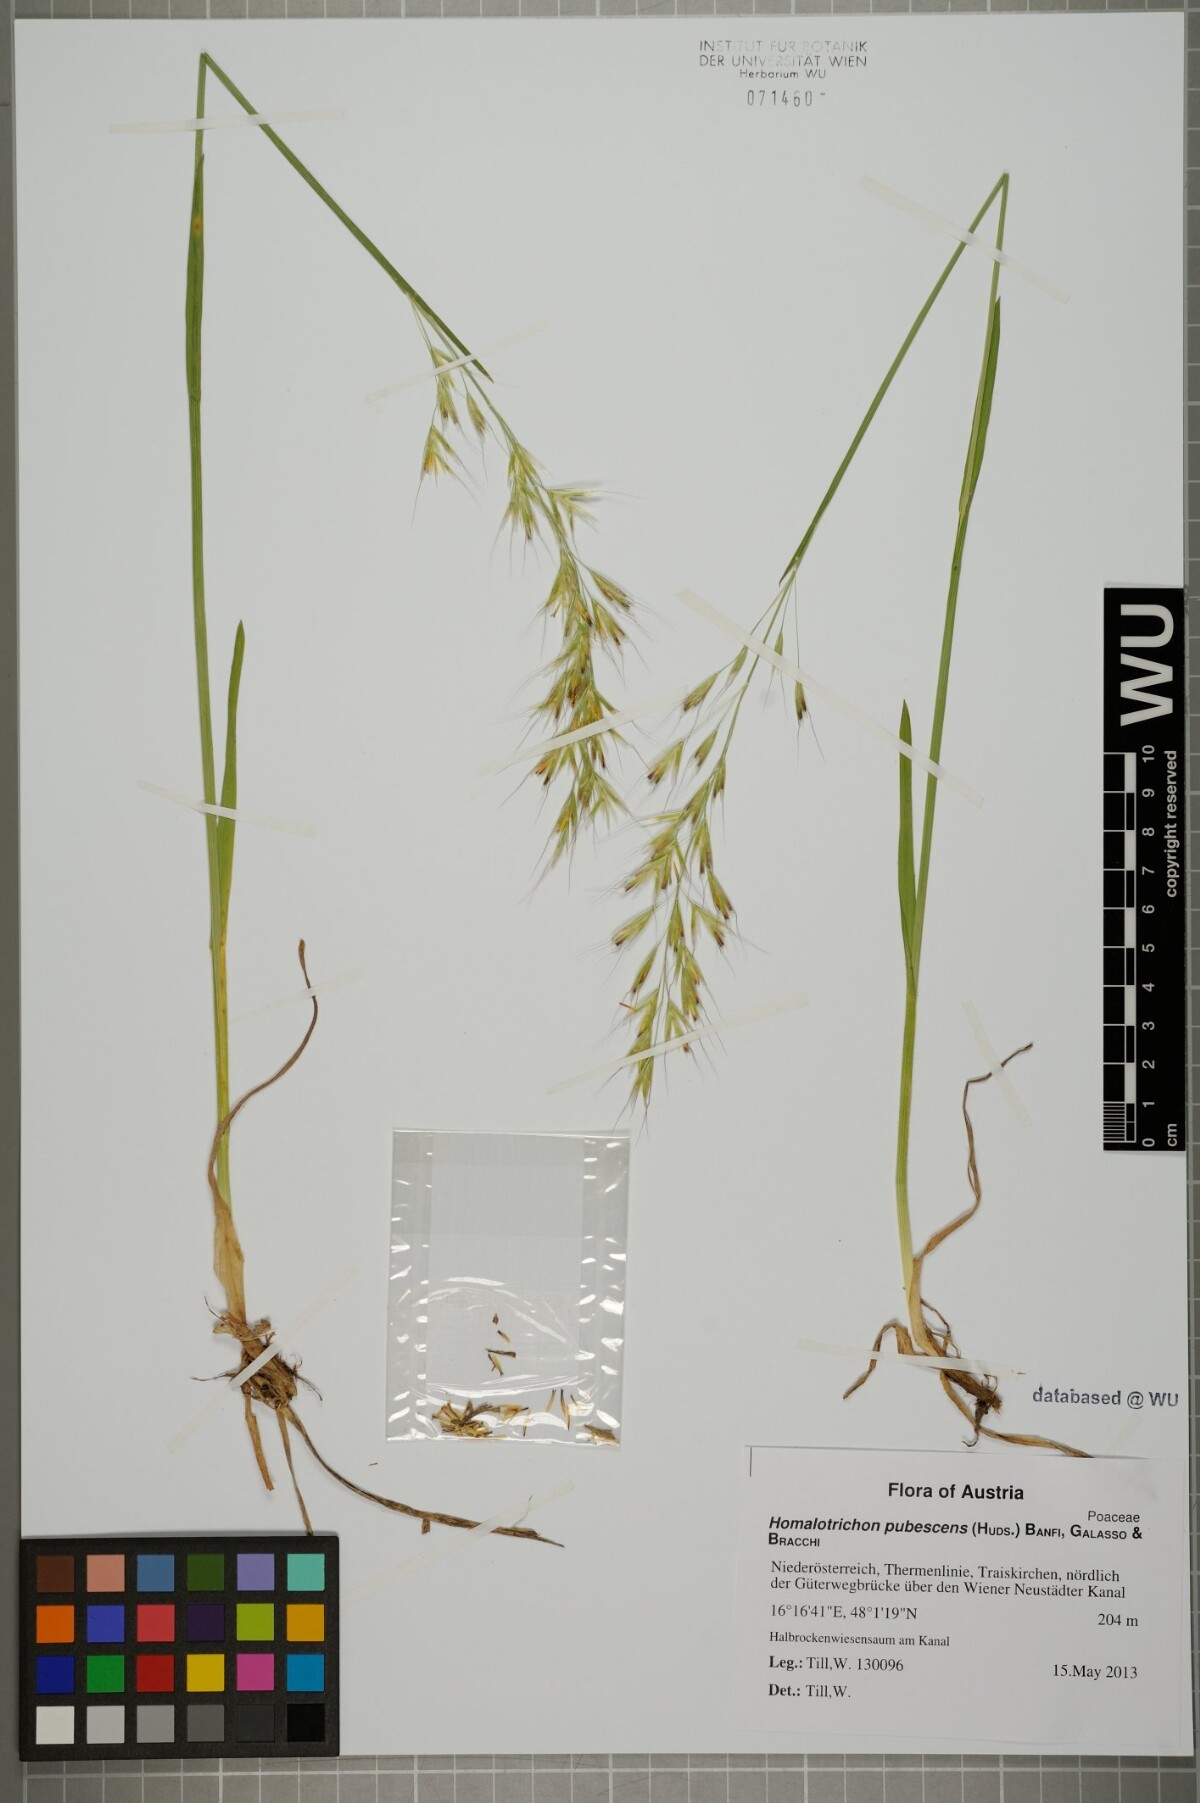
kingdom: Plantae
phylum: Tracheophyta
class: Liliopsida
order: Poales
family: Poaceae
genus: Avenula
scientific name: Avenula pubescens
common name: Downy alpine oatgrass
